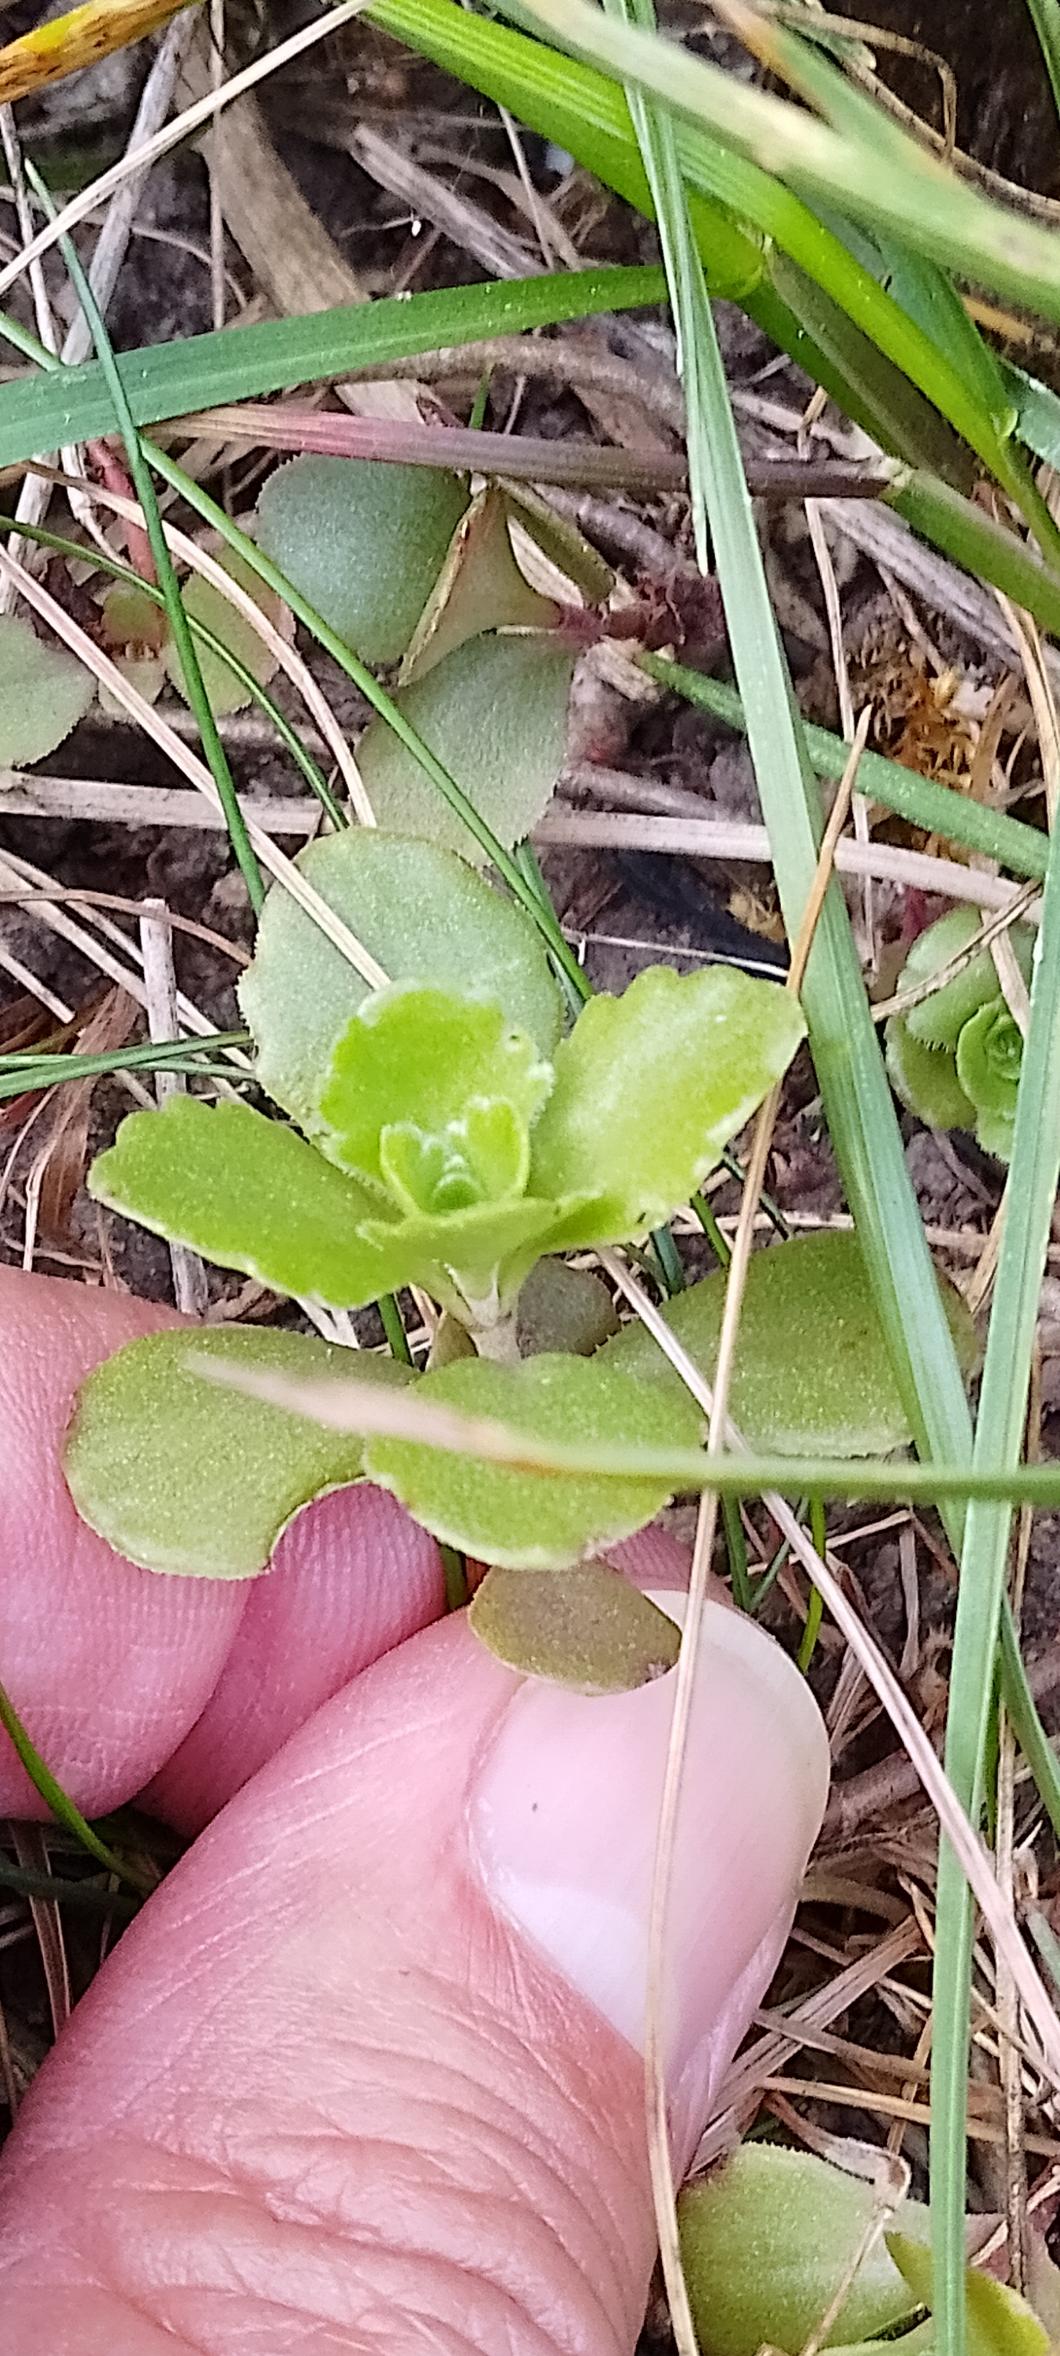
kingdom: Plantae
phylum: Tracheophyta
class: Magnoliopsida
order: Saxifragales
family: Crassulaceae
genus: Phedimus
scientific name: Phedimus spurius
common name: Rød stenurt
